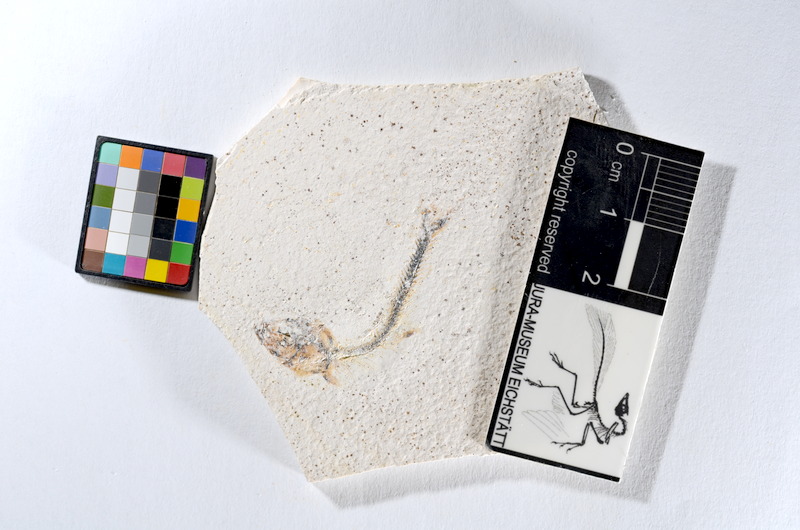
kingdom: Animalia
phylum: Chordata
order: Salmoniformes
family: Orthogonikleithridae
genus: Orthogonikleithrus
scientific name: Orthogonikleithrus hoelli
